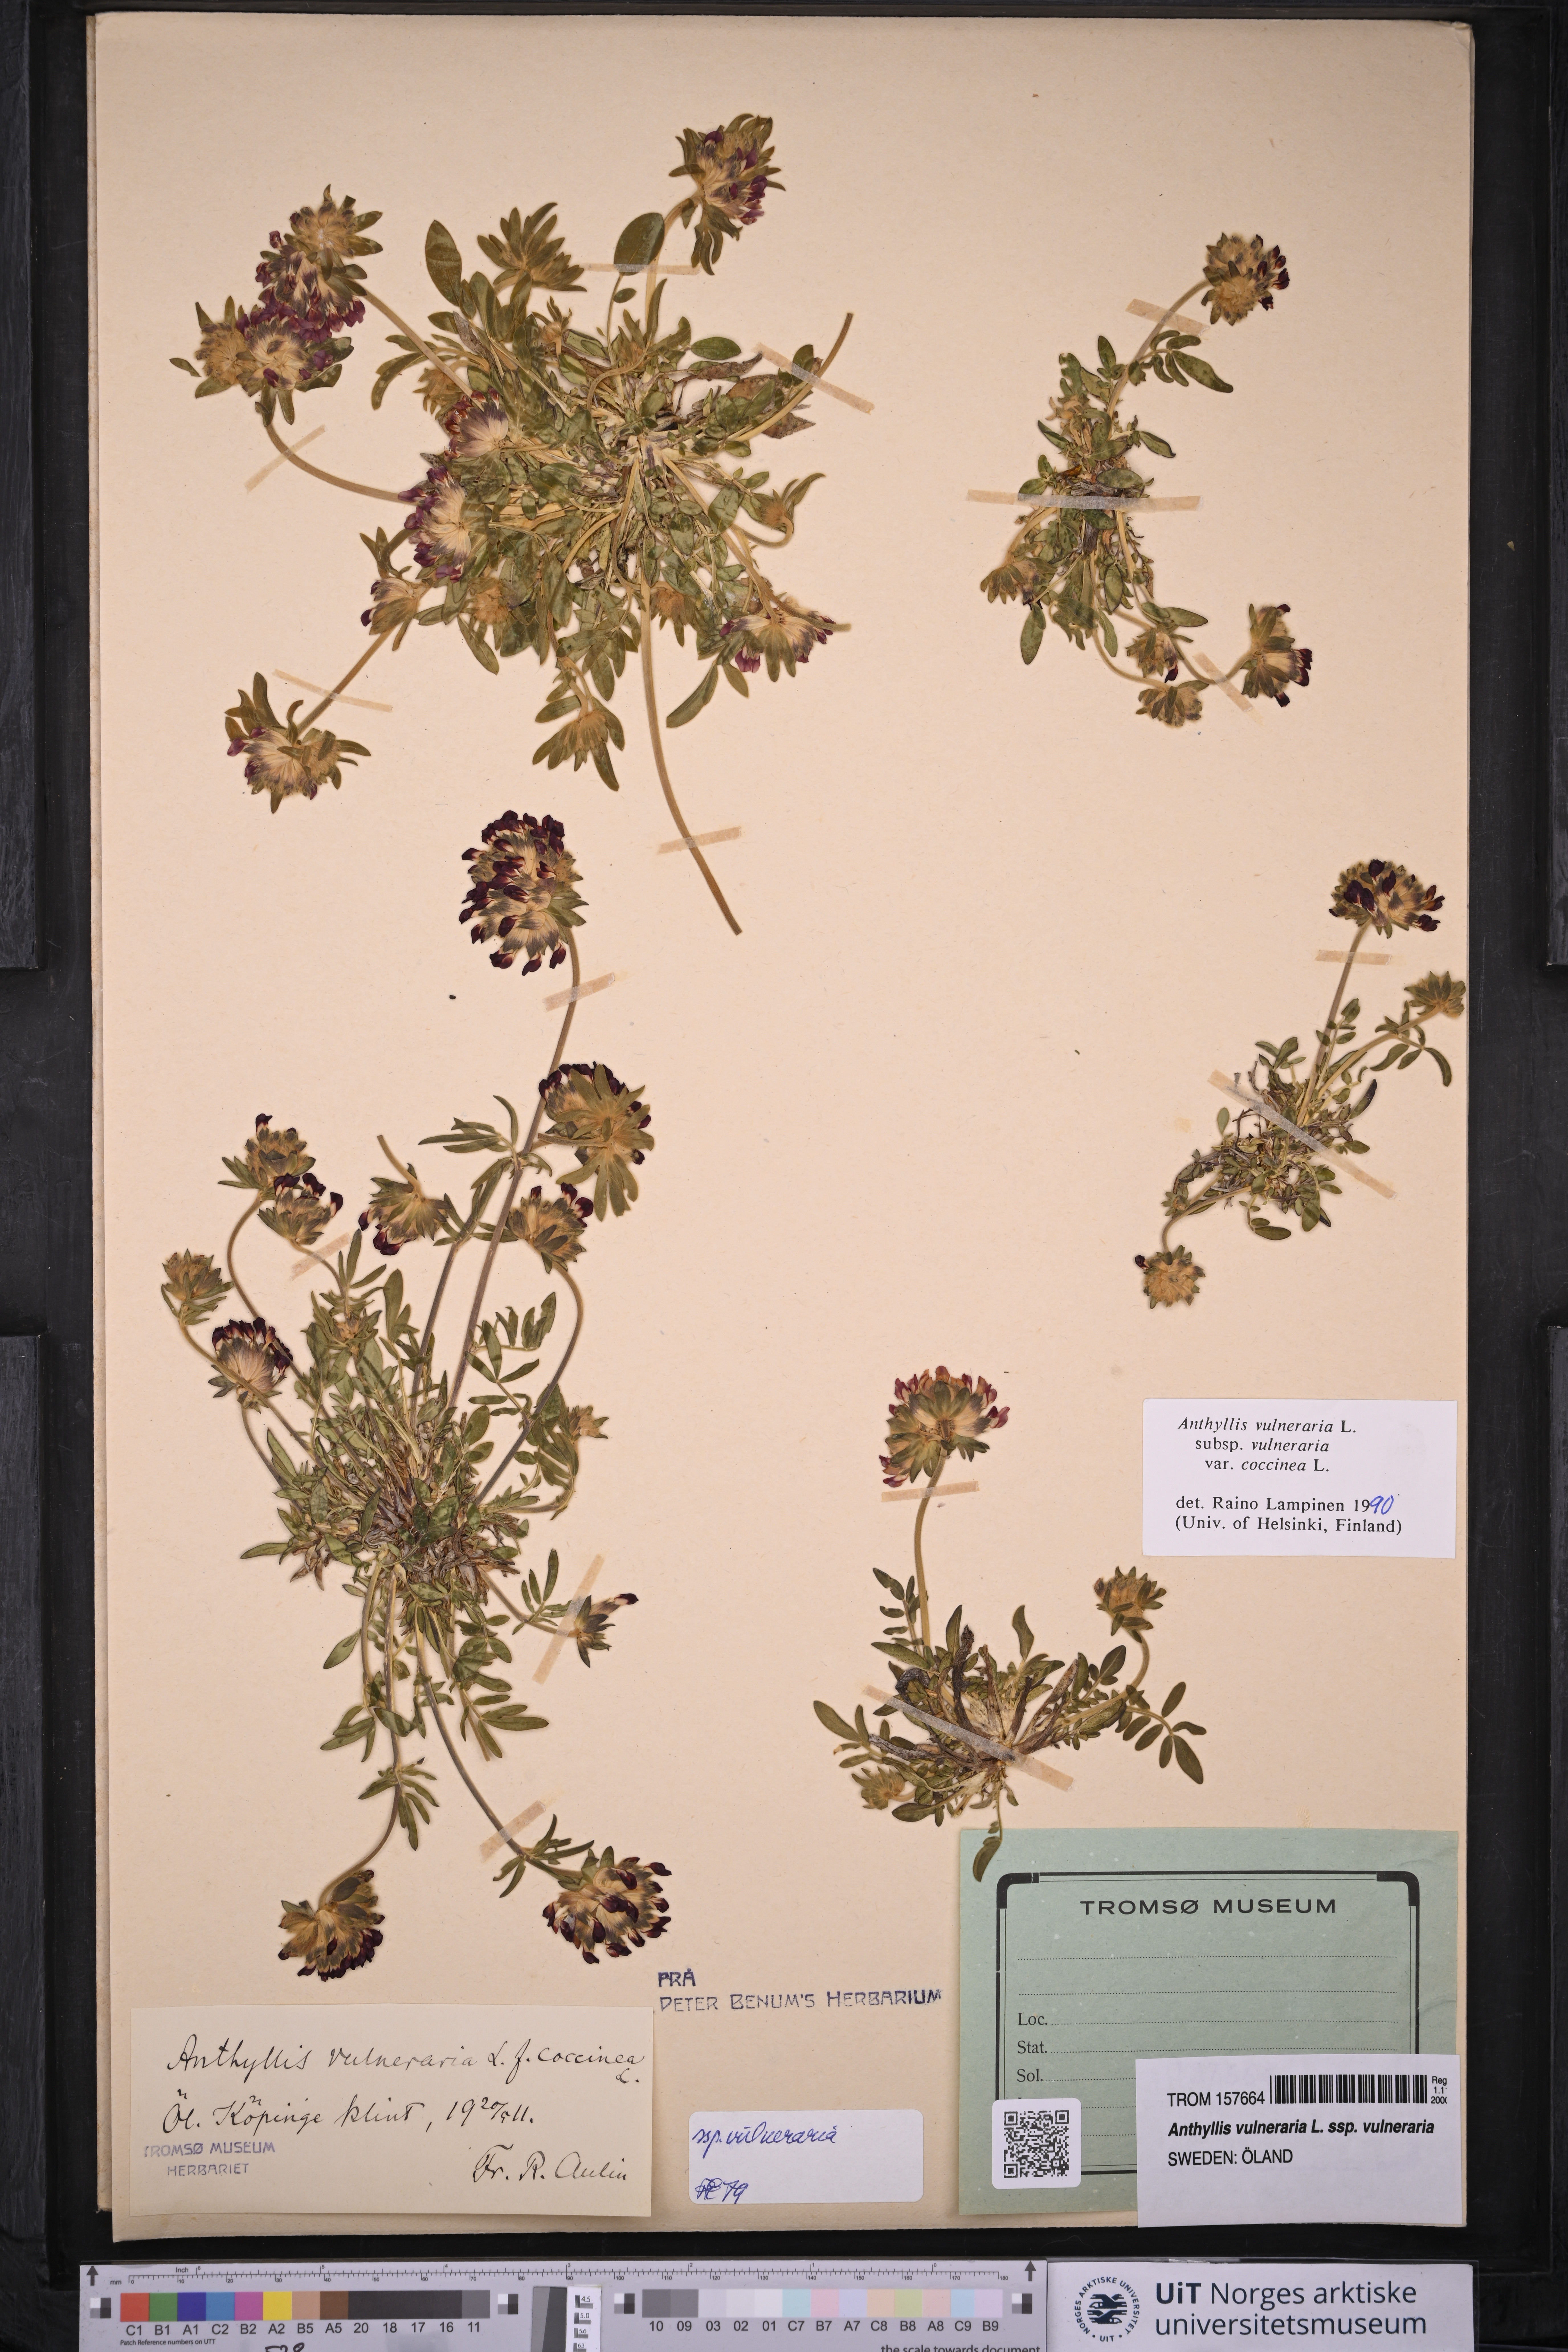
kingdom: Plantae
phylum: Tracheophyta
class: Magnoliopsida
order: Fabales
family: Fabaceae
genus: Anthyllis
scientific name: Anthyllis vulneraria
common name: Kidney vetch
